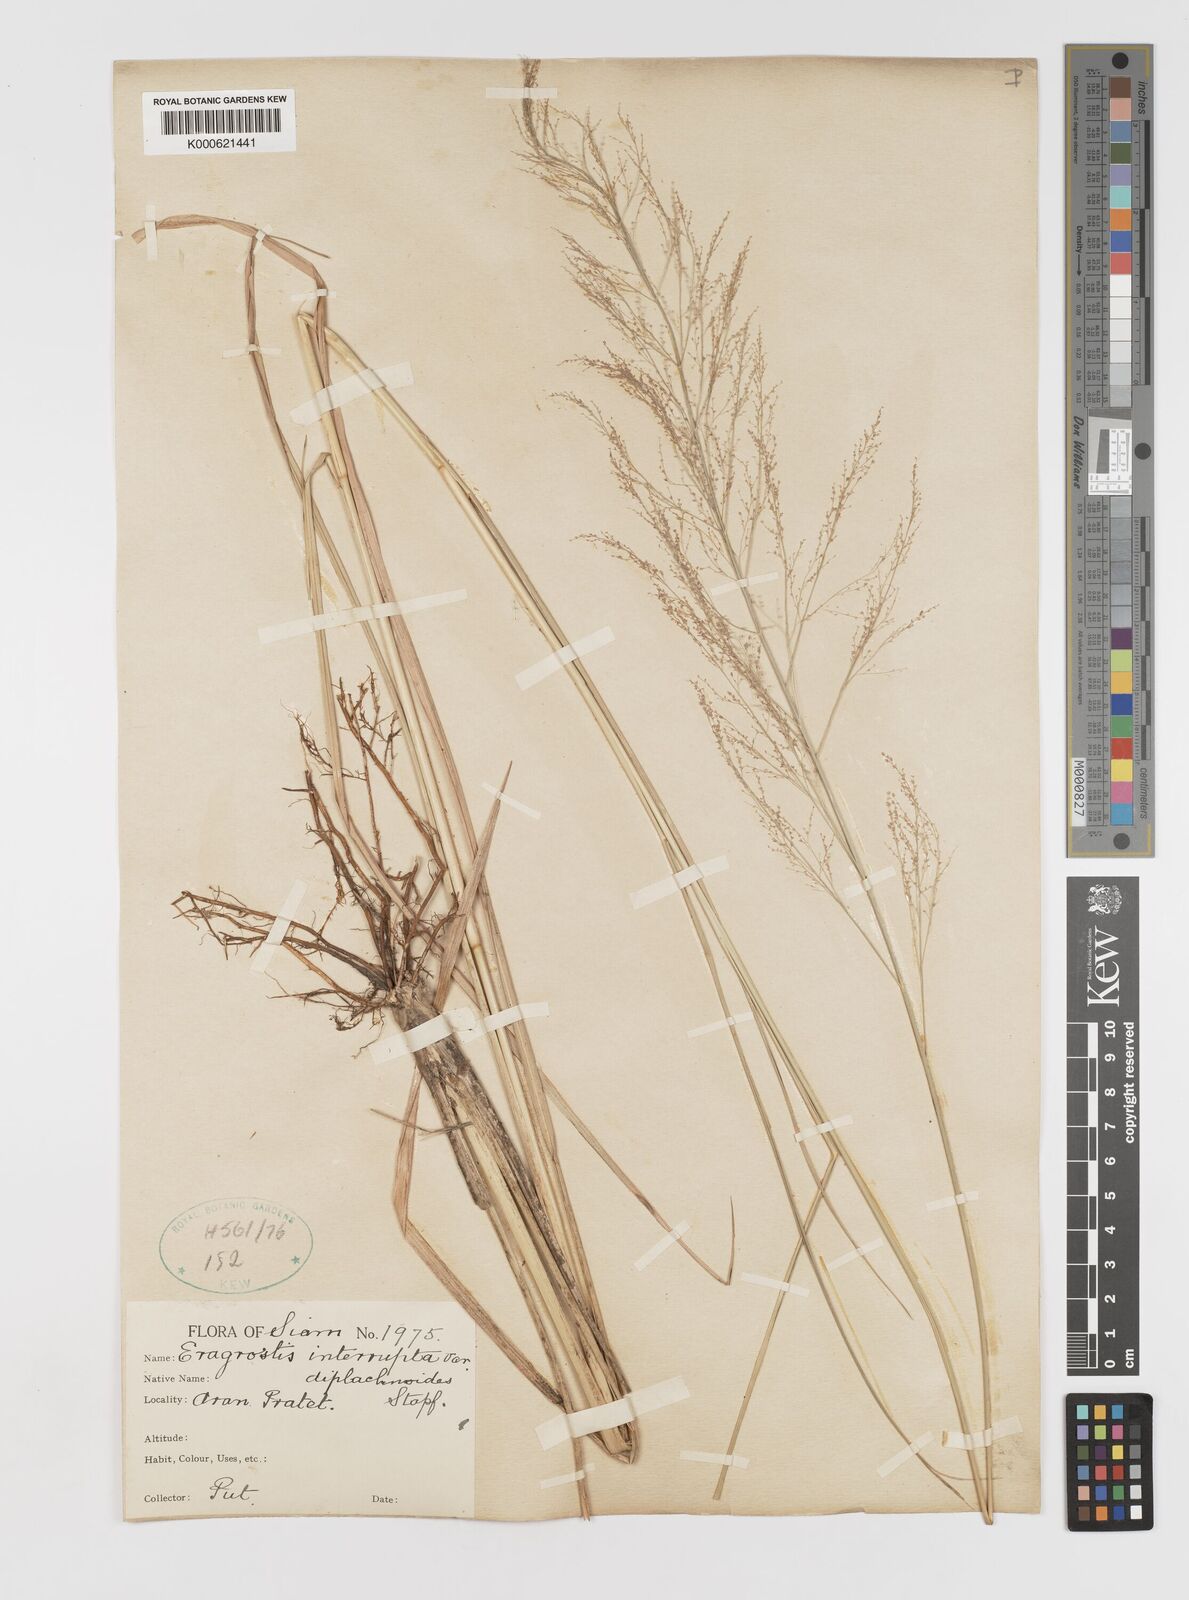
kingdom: Plantae
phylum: Tracheophyta
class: Liliopsida
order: Poales
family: Poaceae
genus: Eragrostis
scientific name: Eragrostis japonica
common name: Pond lovegrass
